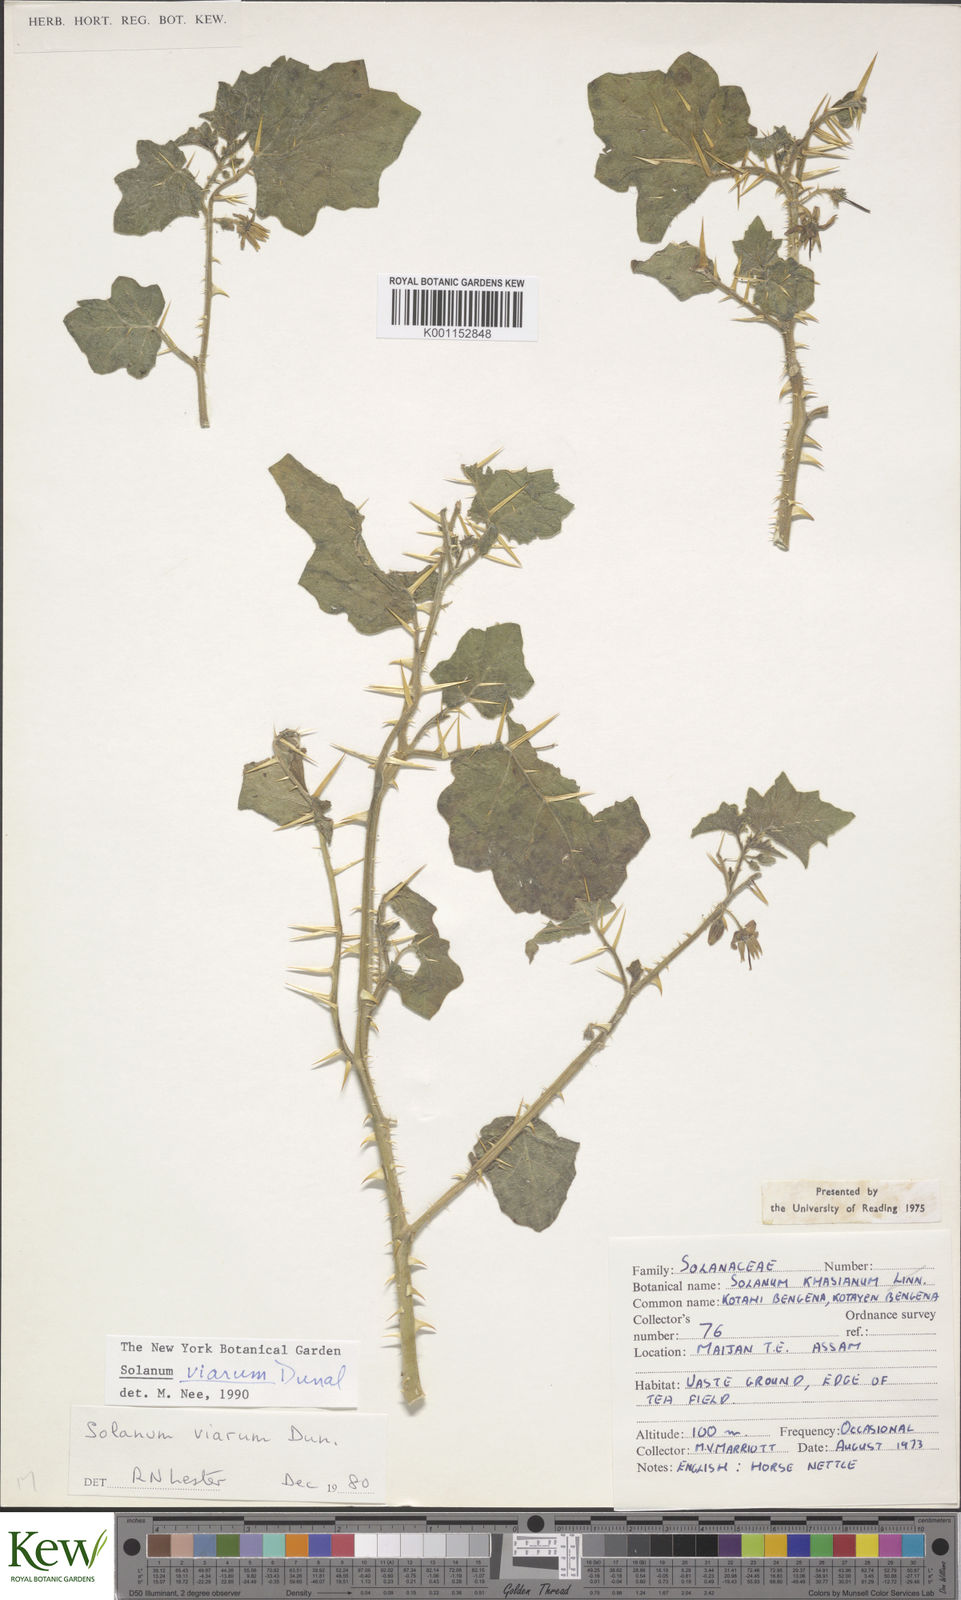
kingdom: Plantae
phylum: Tracheophyta
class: Magnoliopsida
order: Solanales
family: Solanaceae
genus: Solanum
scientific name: Solanum viarum
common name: Tropical soda apple
